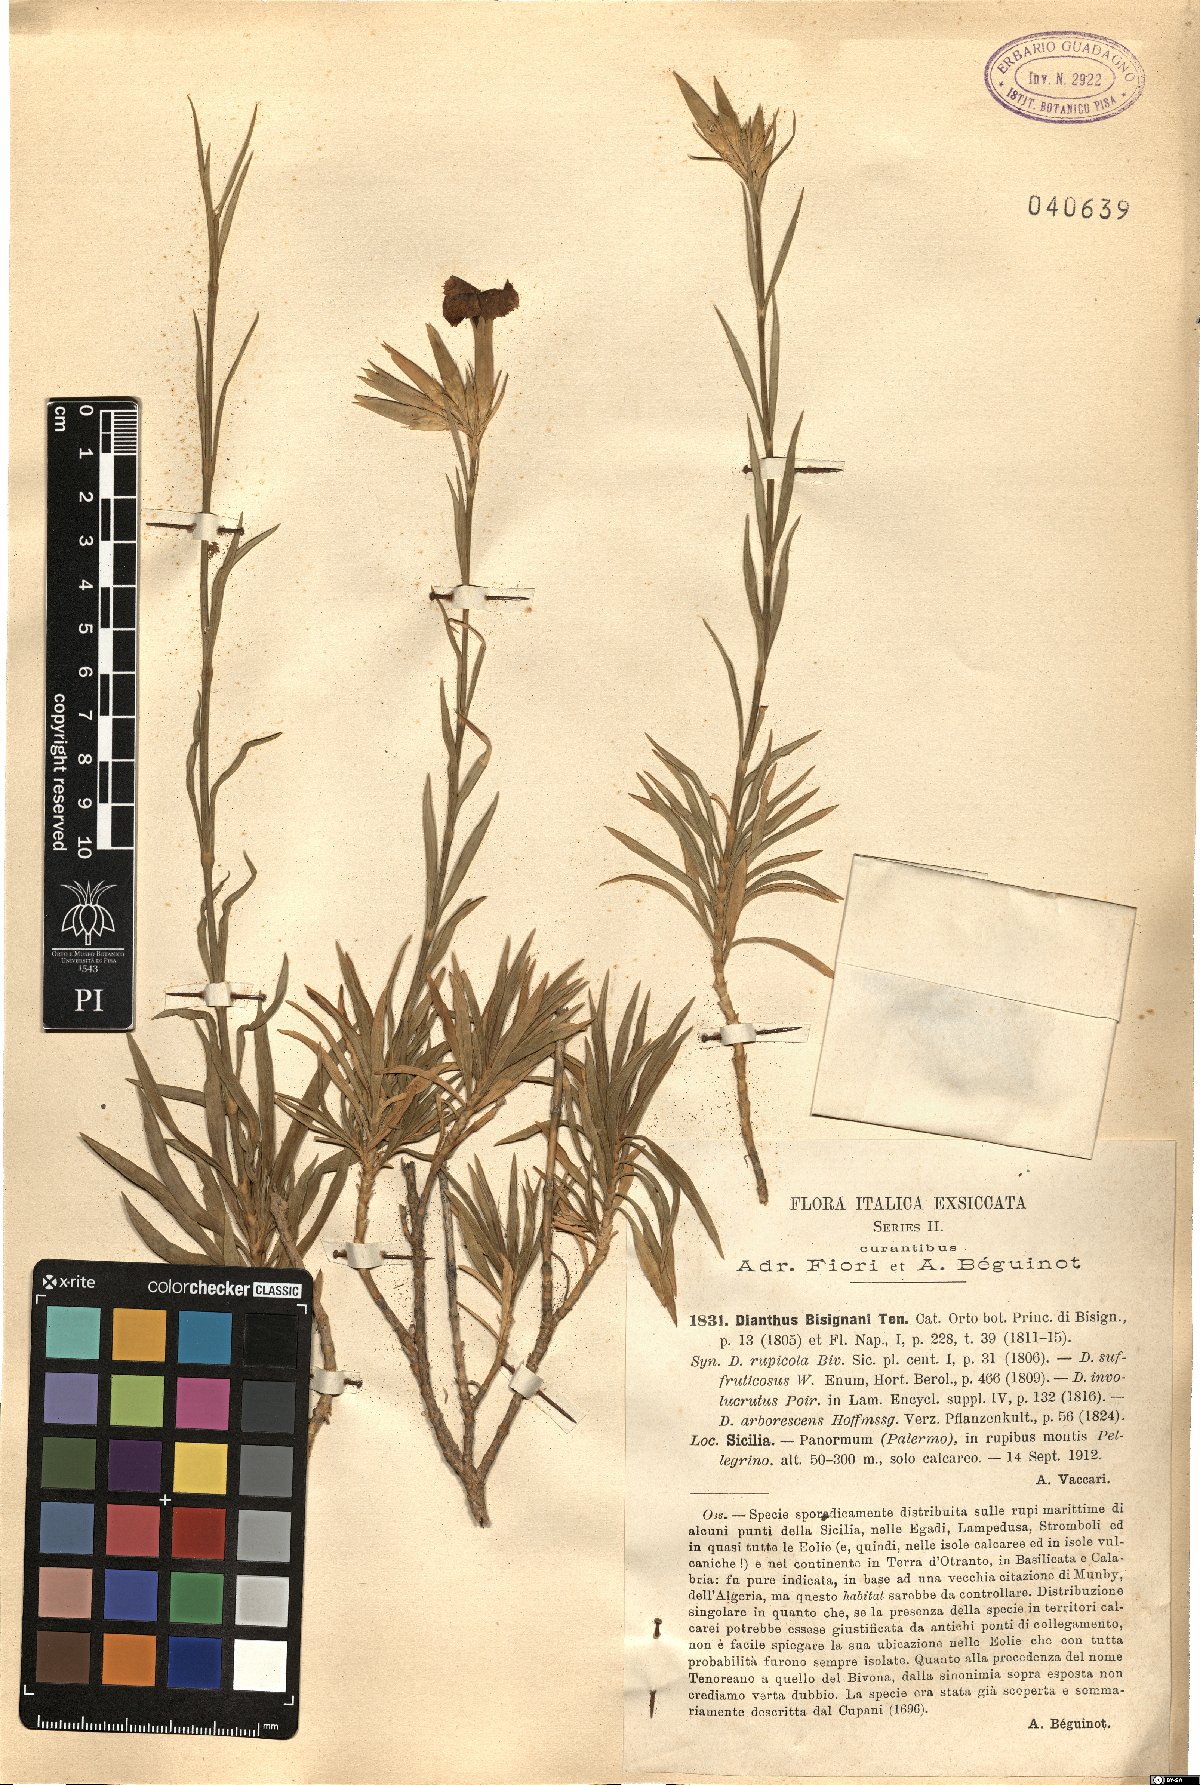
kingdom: Plantae
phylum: Tracheophyta
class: Magnoliopsida
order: Caryophyllales
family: Caryophyllaceae
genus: Dianthus
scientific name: Dianthus rupicola
